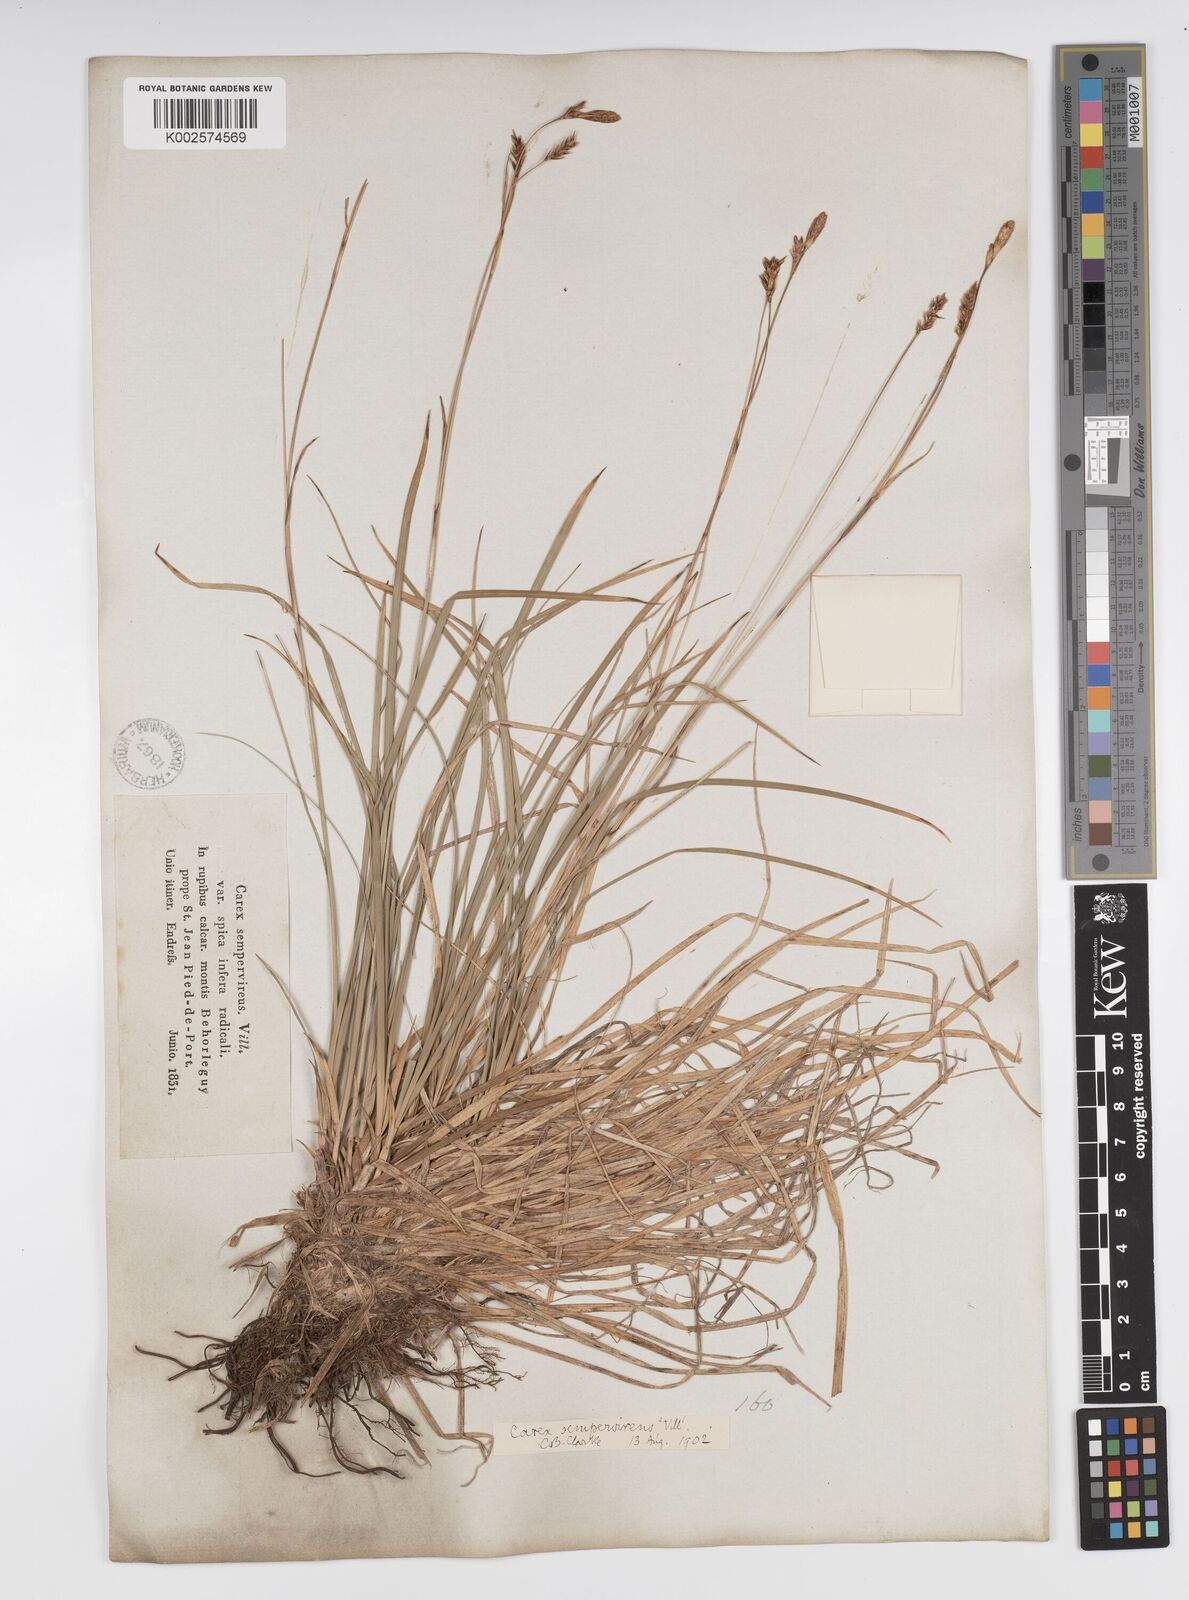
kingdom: Plantae
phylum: Tracheophyta
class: Liliopsida
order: Poales
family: Cyperaceae
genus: Carex
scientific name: Carex sempervirens
